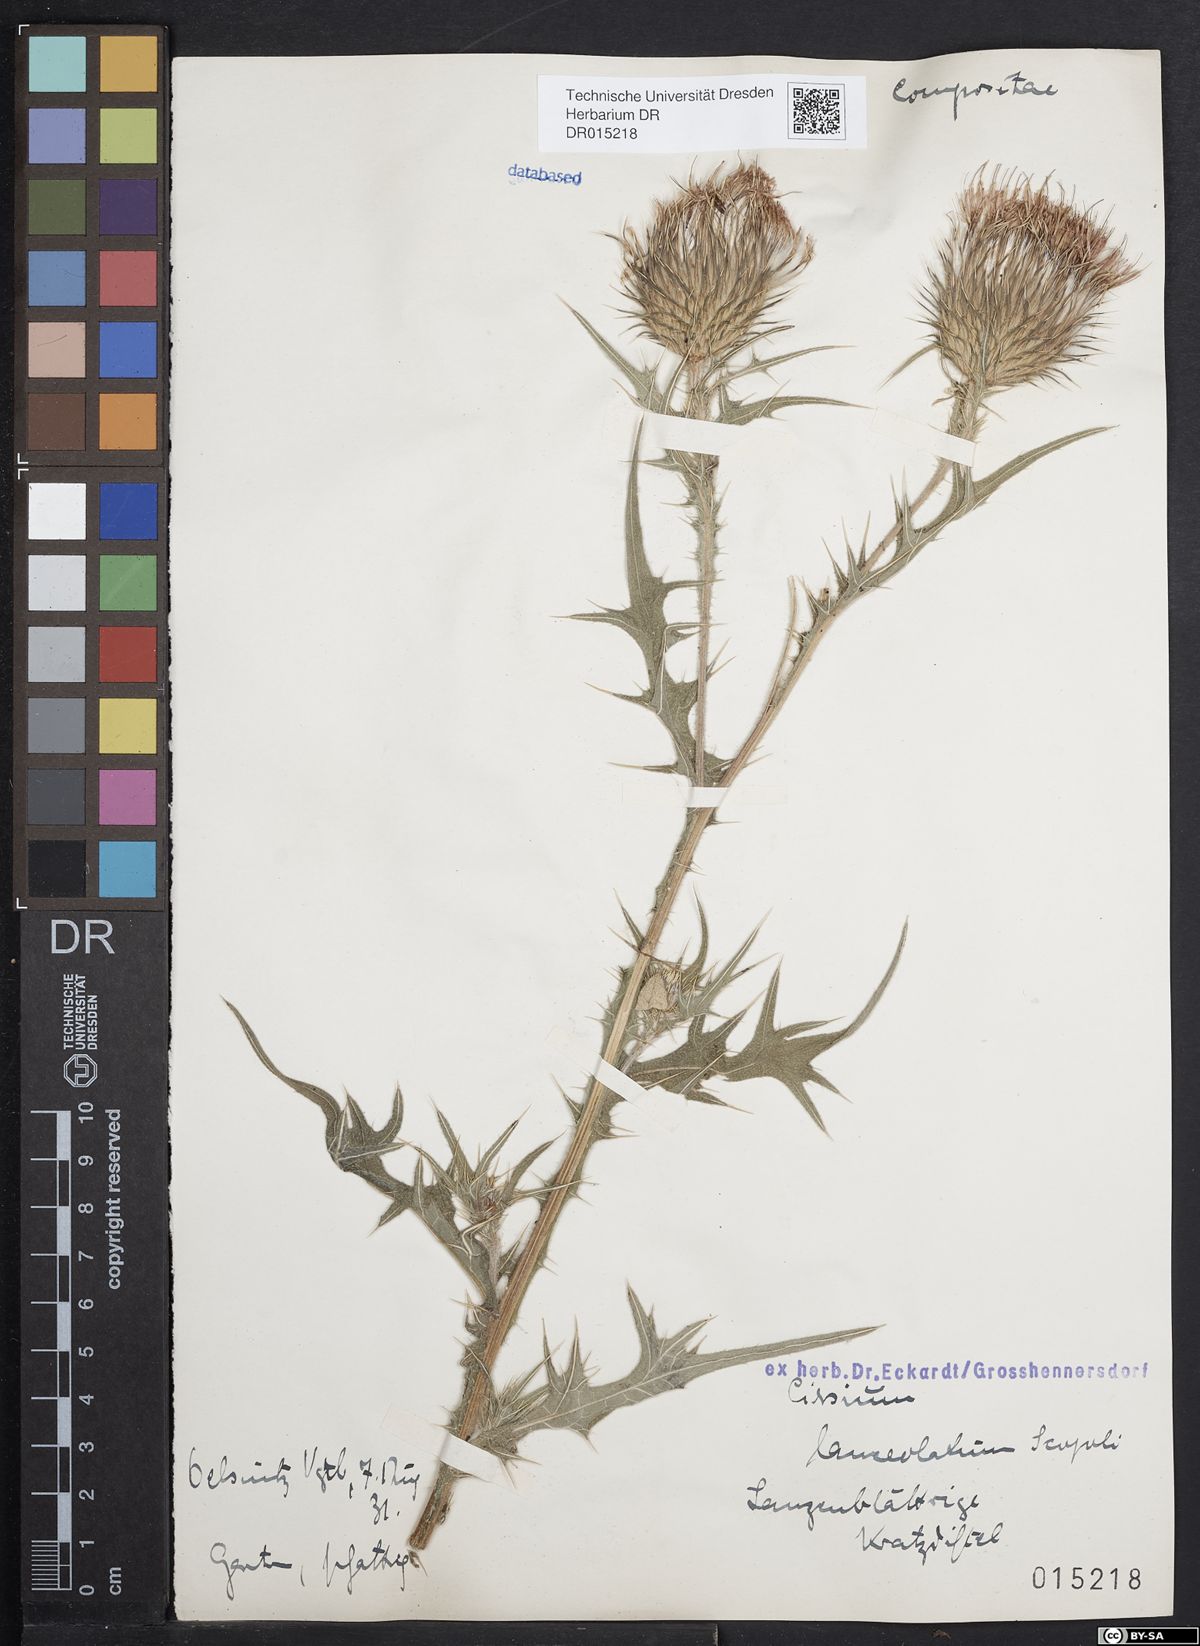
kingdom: Plantae
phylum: Tracheophyta
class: Magnoliopsida
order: Asterales
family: Asteraceae
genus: Cirsium
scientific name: Cirsium vulgare
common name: Bull thistle
